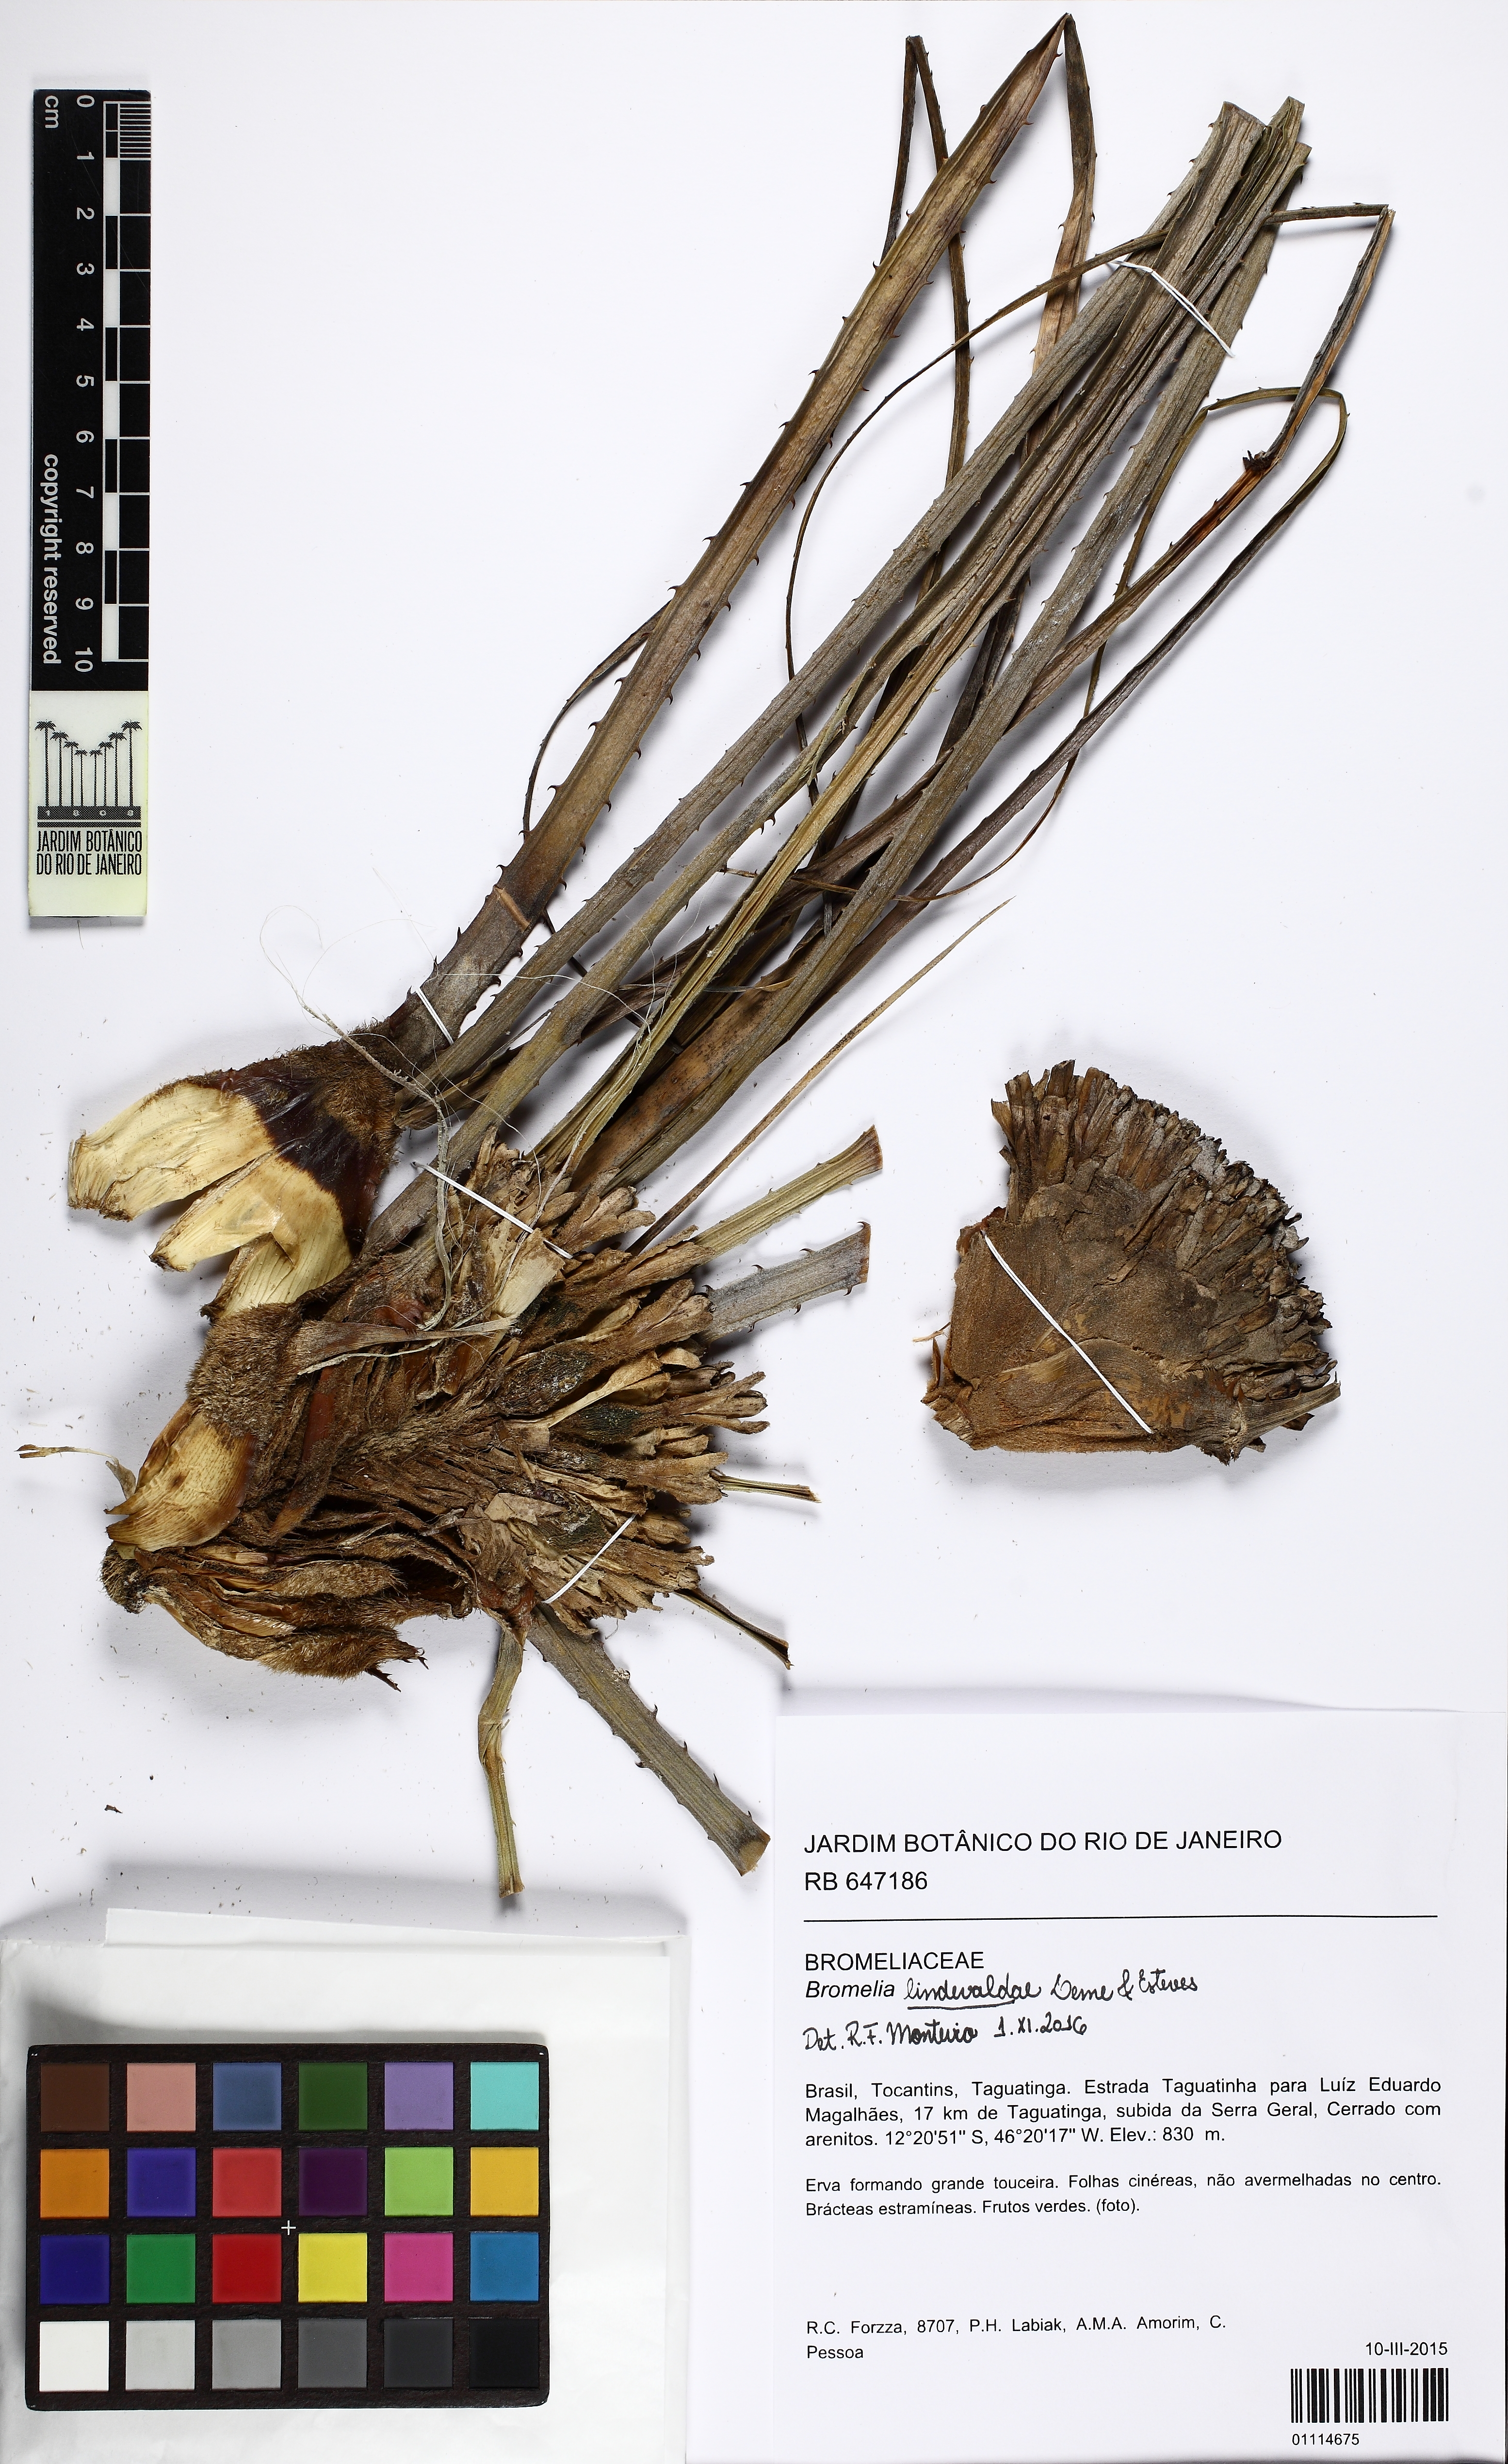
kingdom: Plantae
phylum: Tracheophyta
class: Liliopsida
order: Poales
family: Bromeliaceae
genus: Bromelia
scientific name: Bromelia lindevaldae
